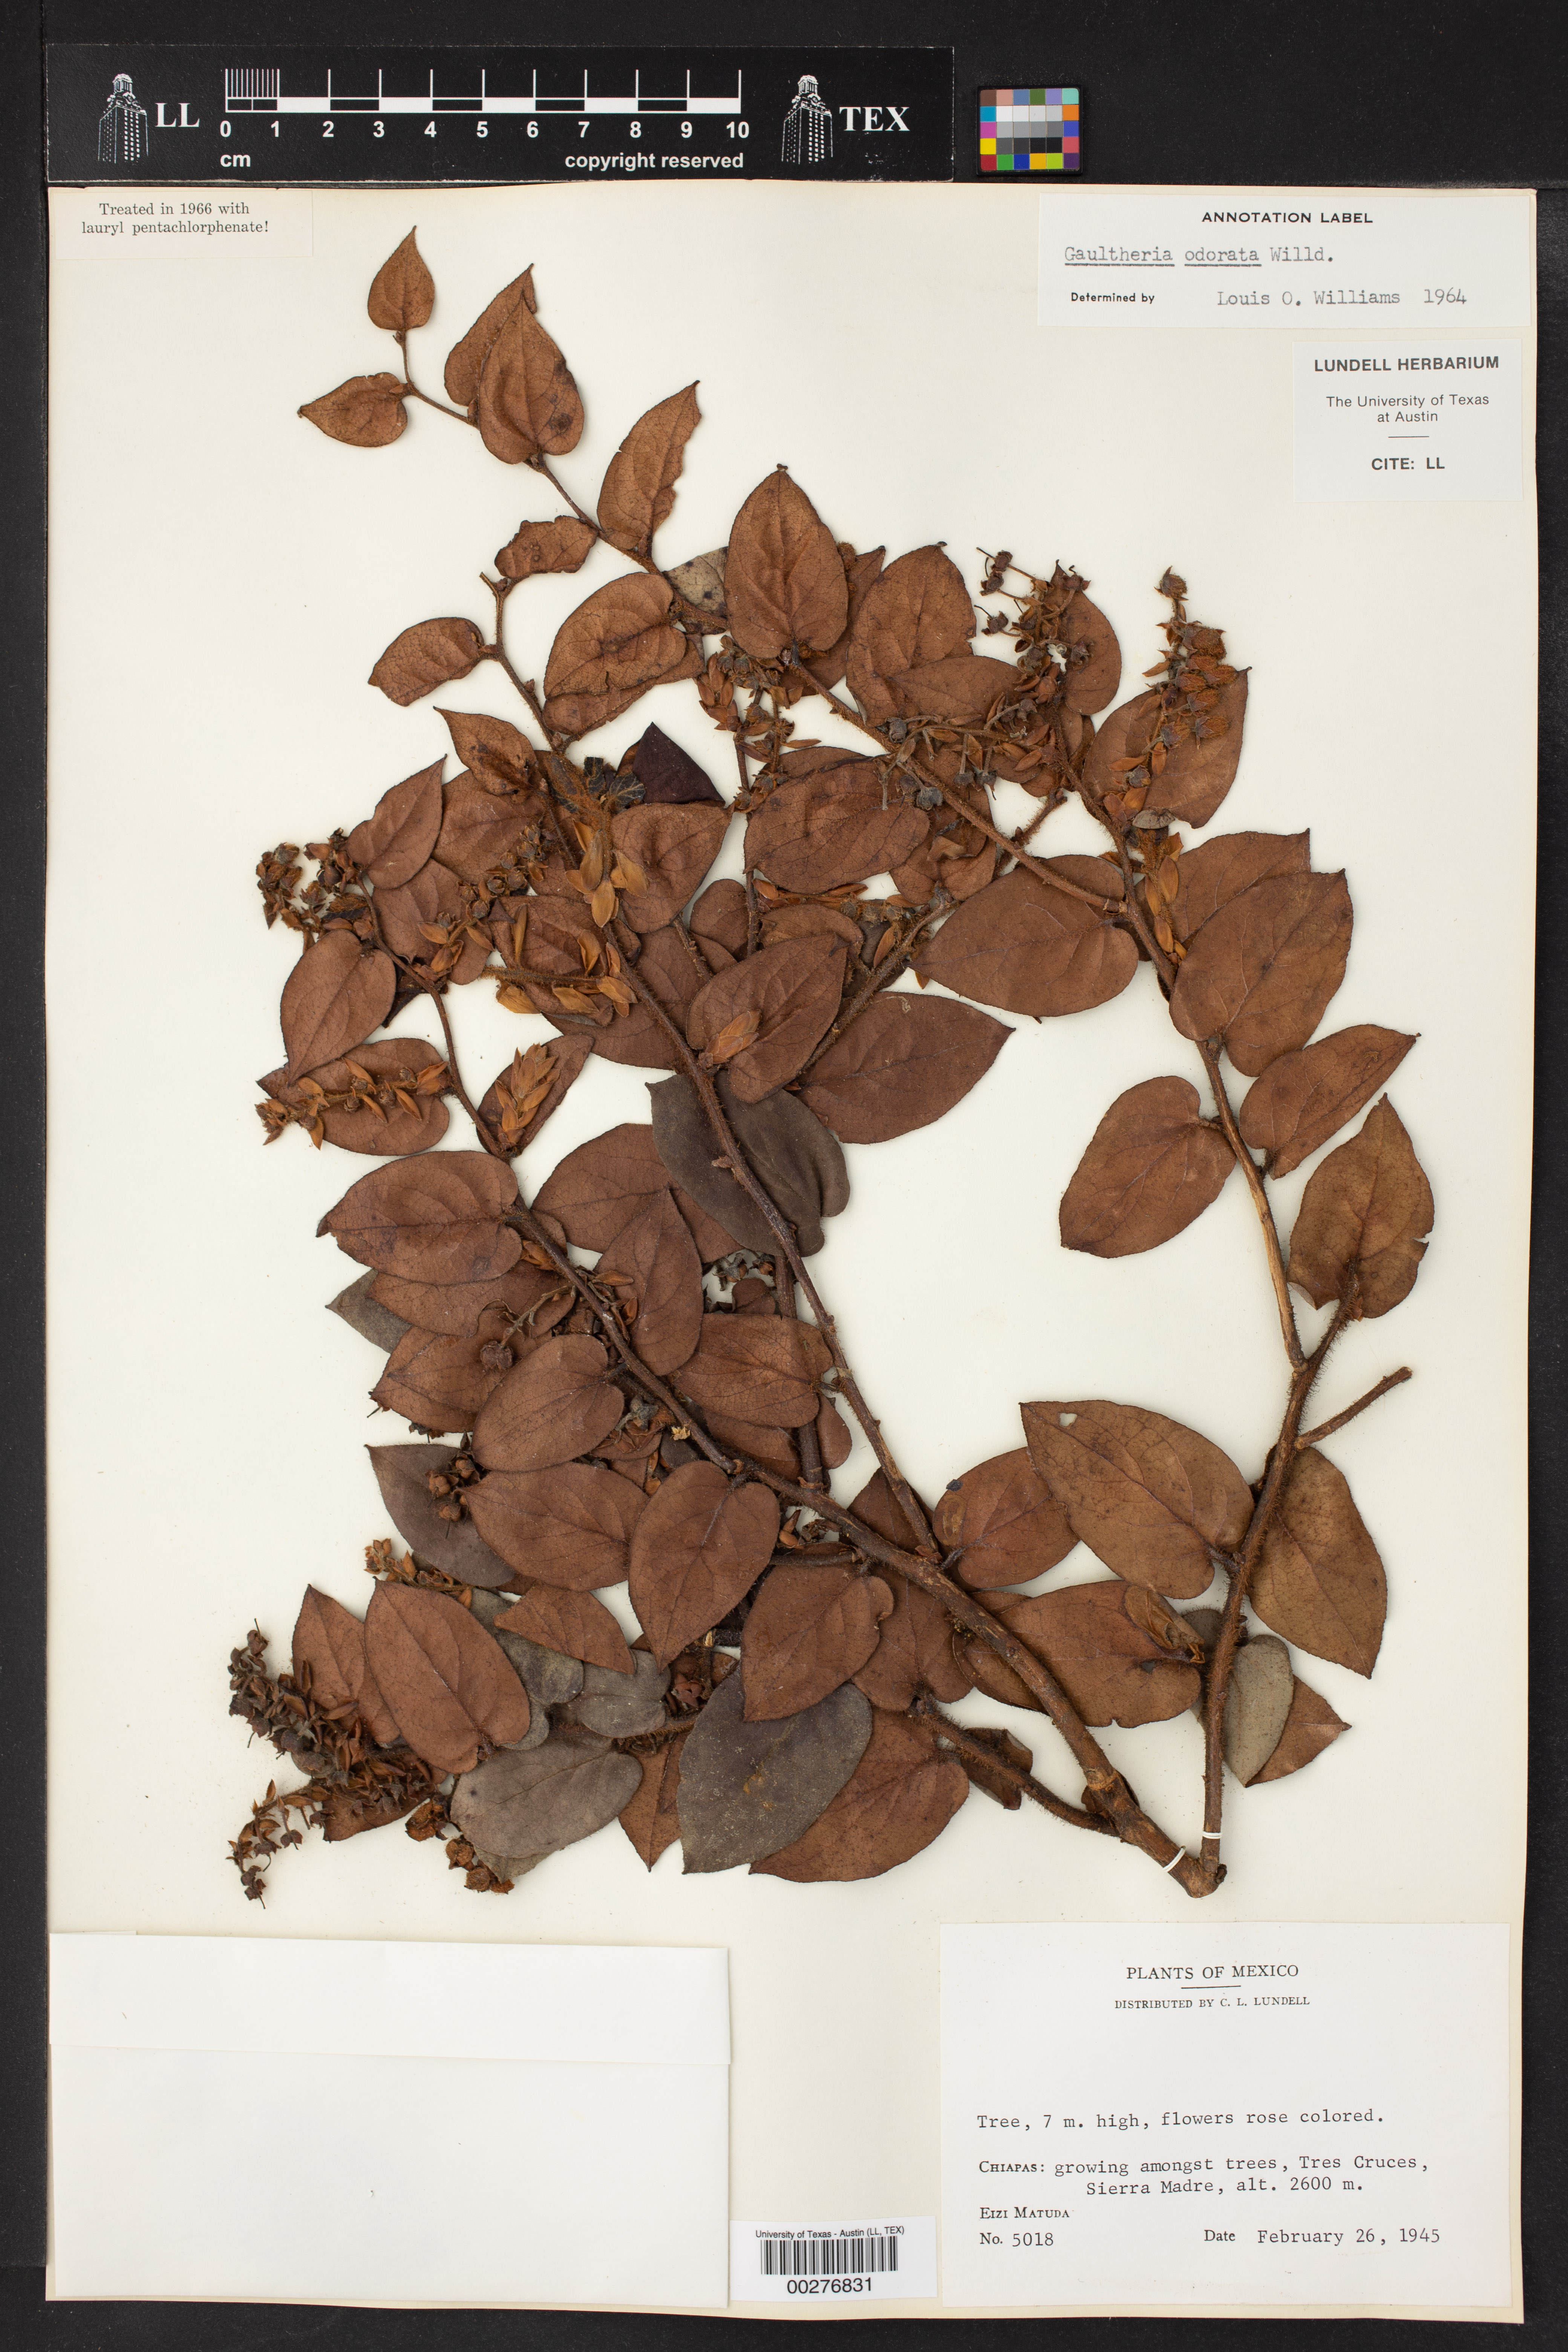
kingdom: Plantae
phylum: Tracheophyta
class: Magnoliopsida
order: Ericales
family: Ericaceae
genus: Gaultheria
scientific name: Gaultheria odorata
